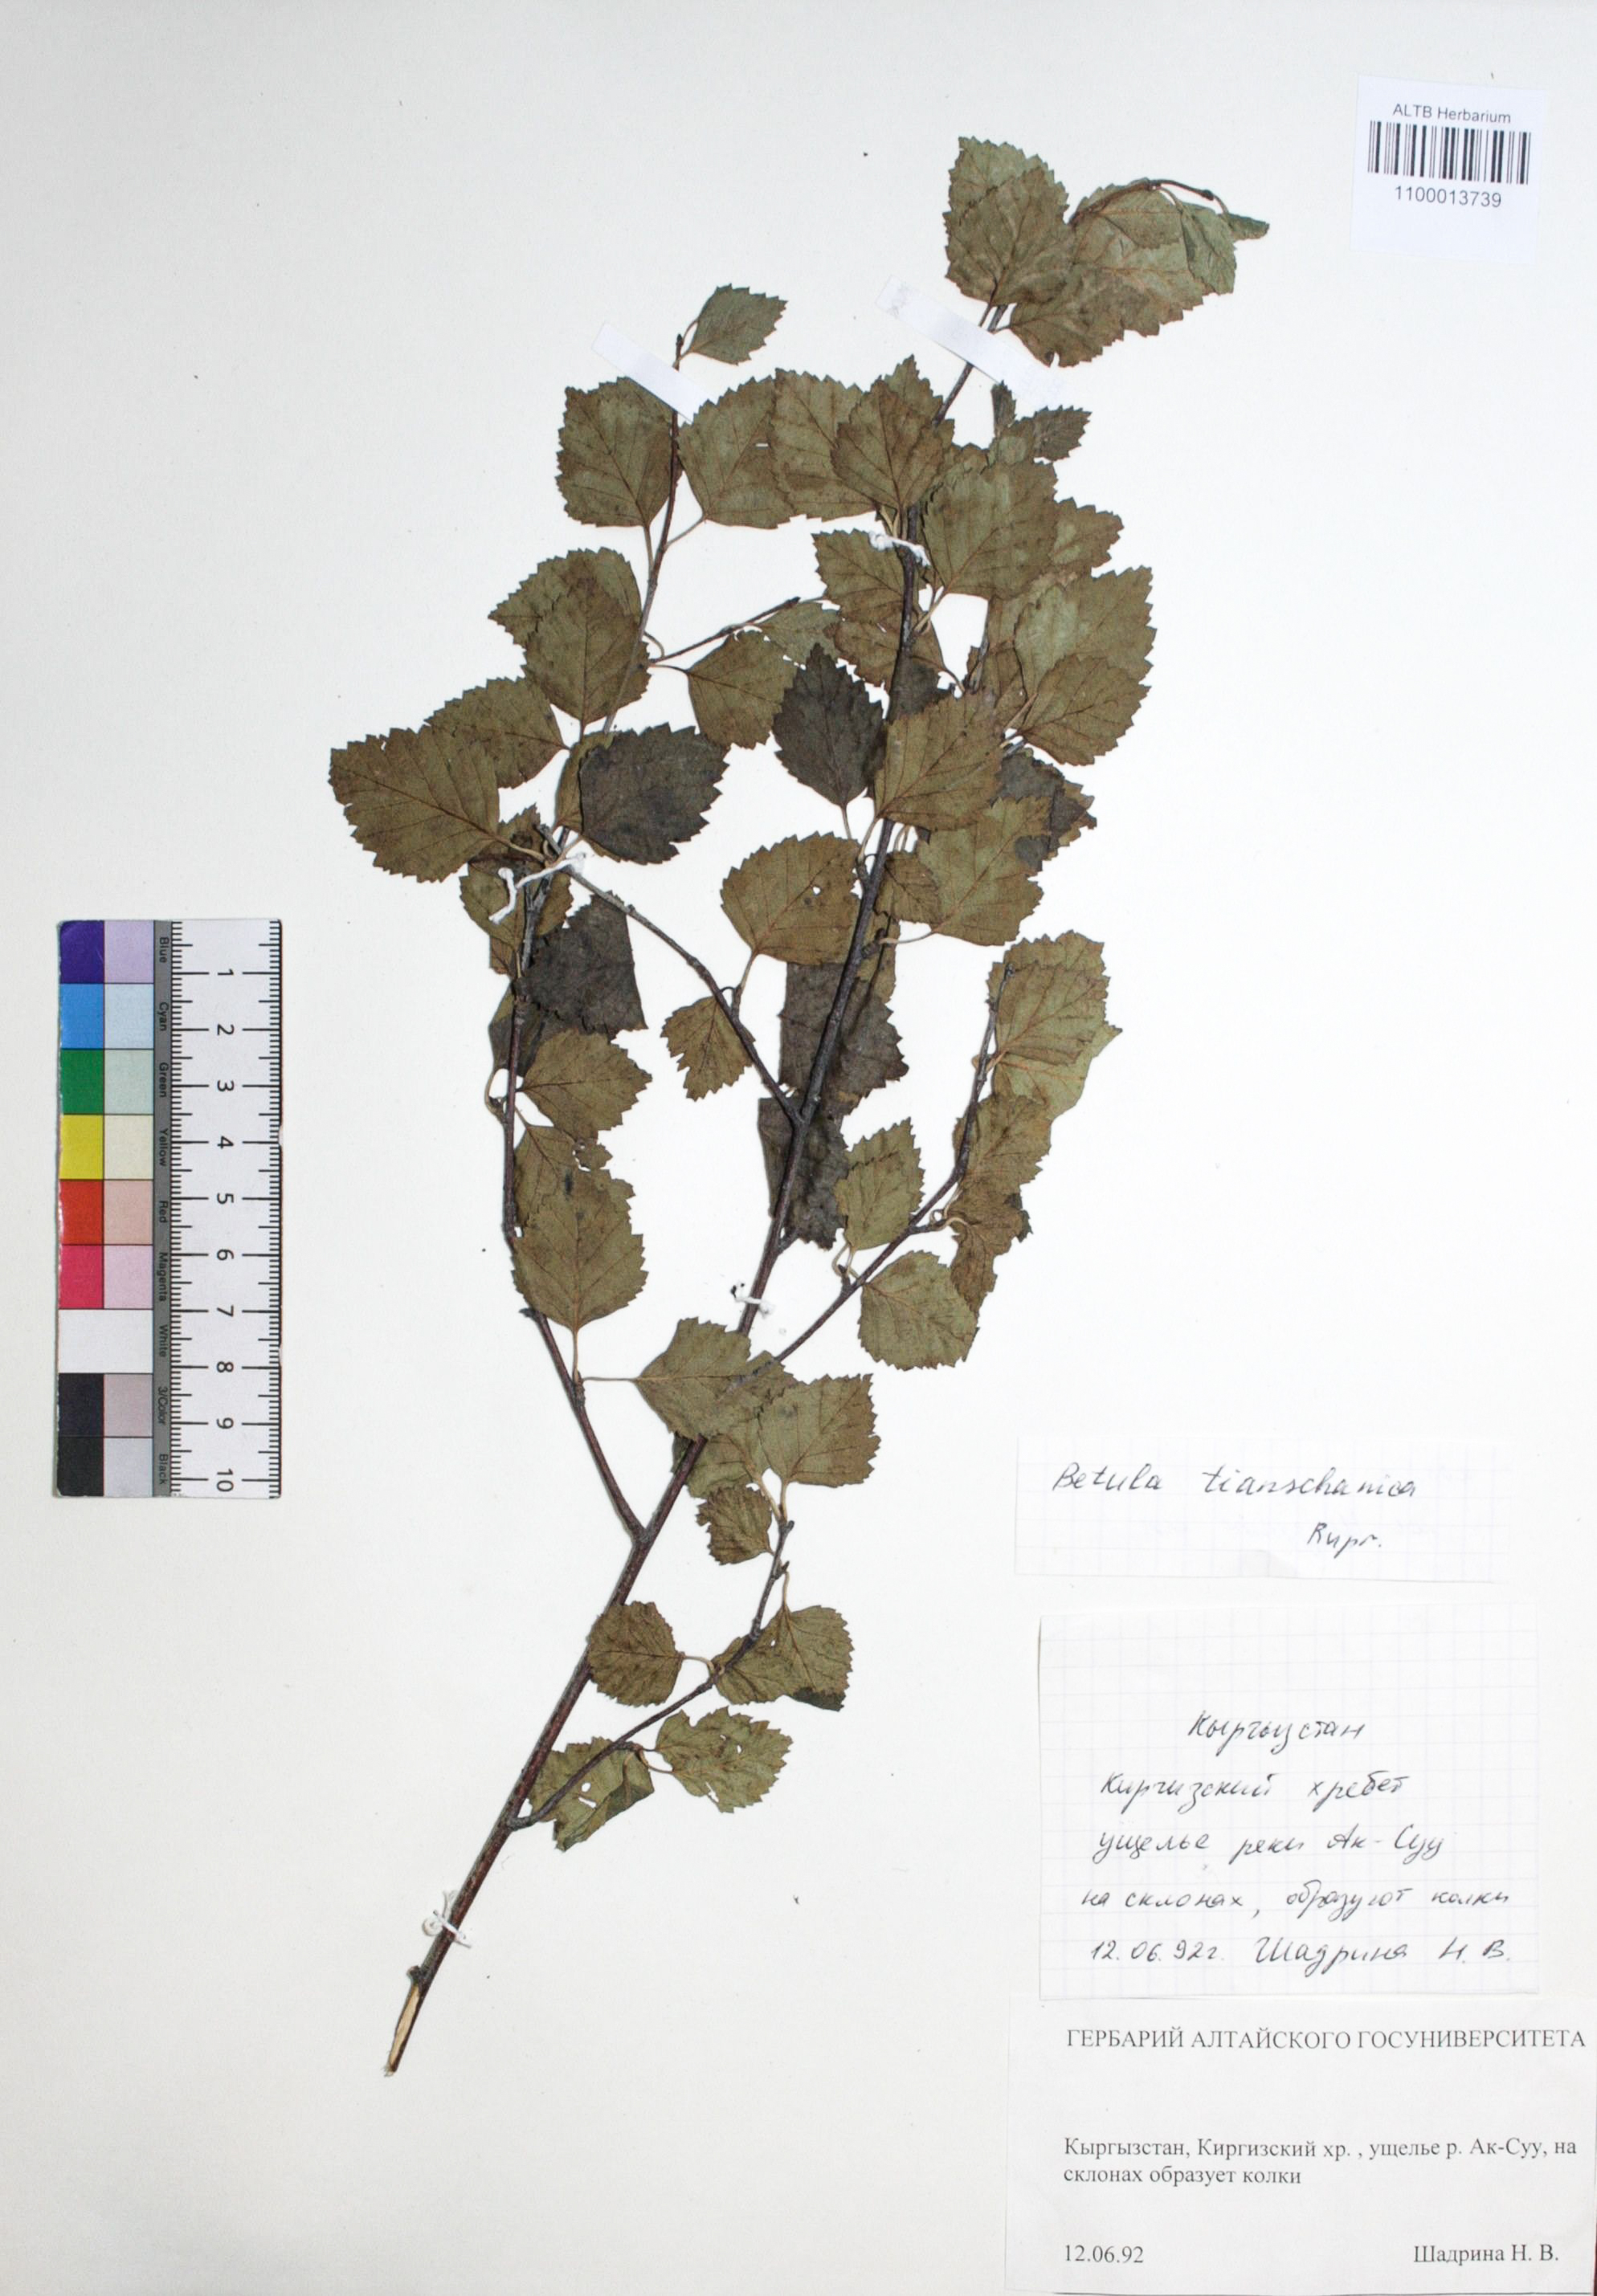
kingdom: Plantae
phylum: Tracheophyta
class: Magnoliopsida
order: Fagales
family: Betulaceae
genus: Betula
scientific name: Betula tianschanica
